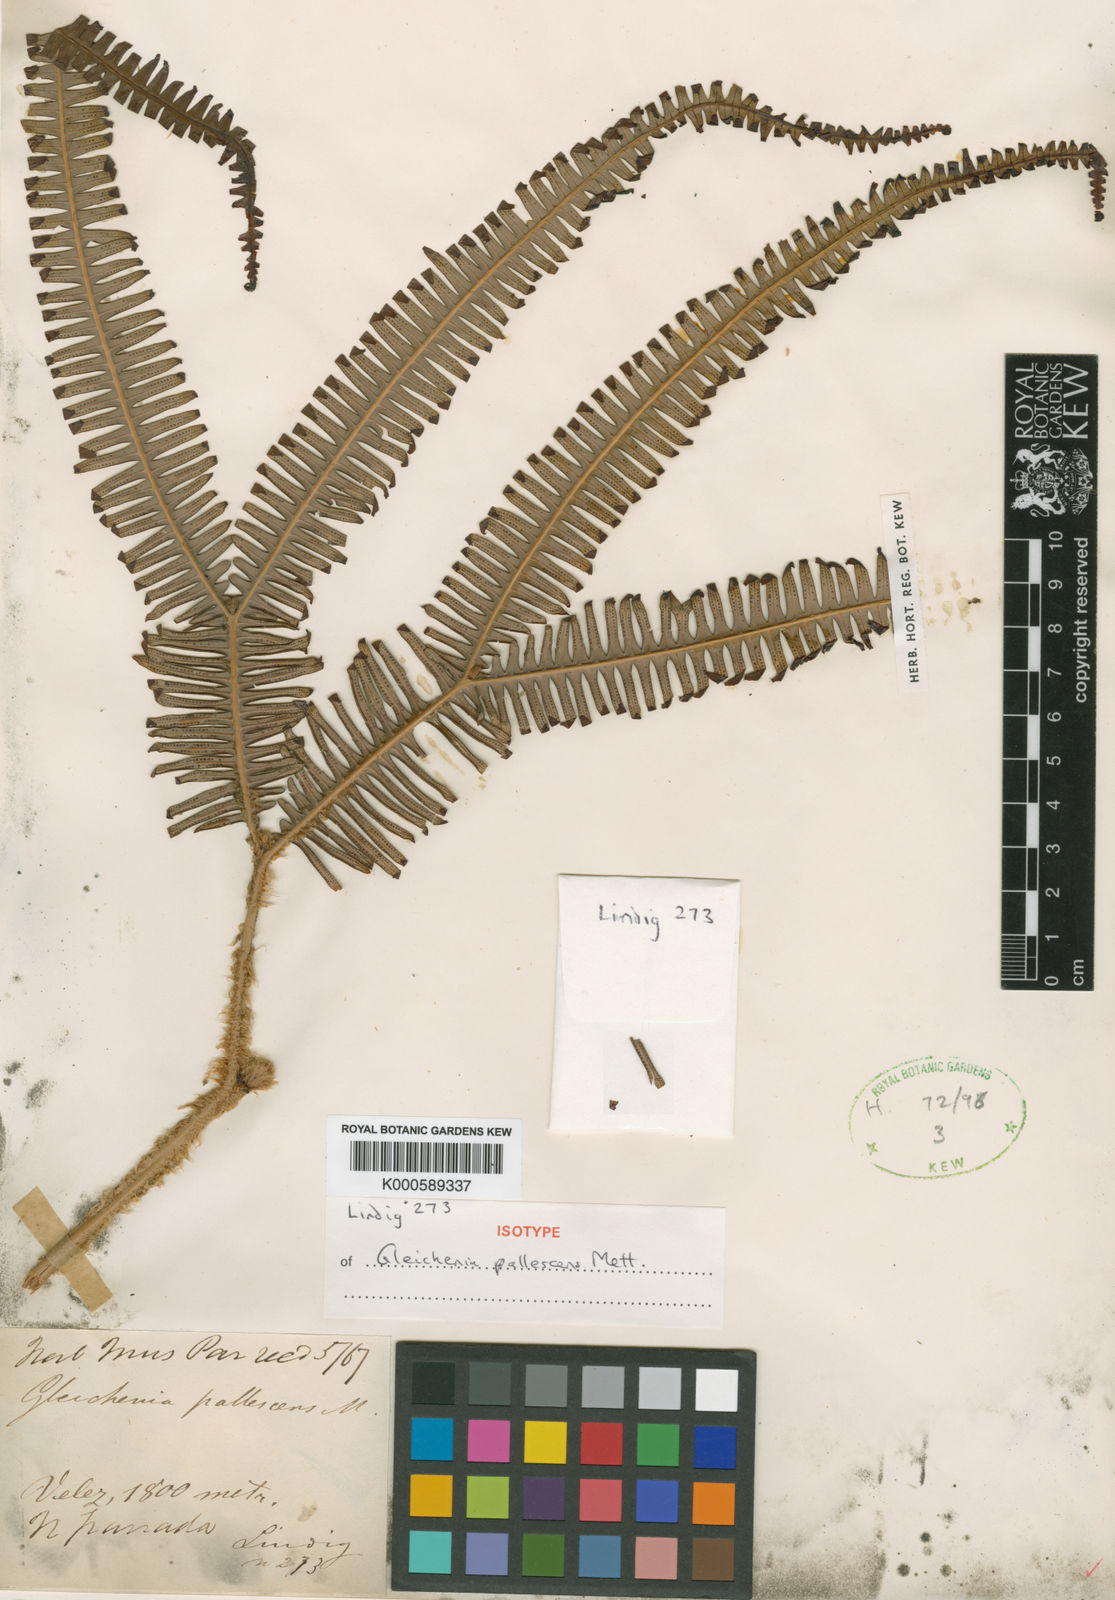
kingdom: Plantae
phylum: Tracheophyta
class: Polypodiopsida
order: Gleicheniales
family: Gleicheniaceae
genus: Sticherus
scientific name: Sticherus pallescens
